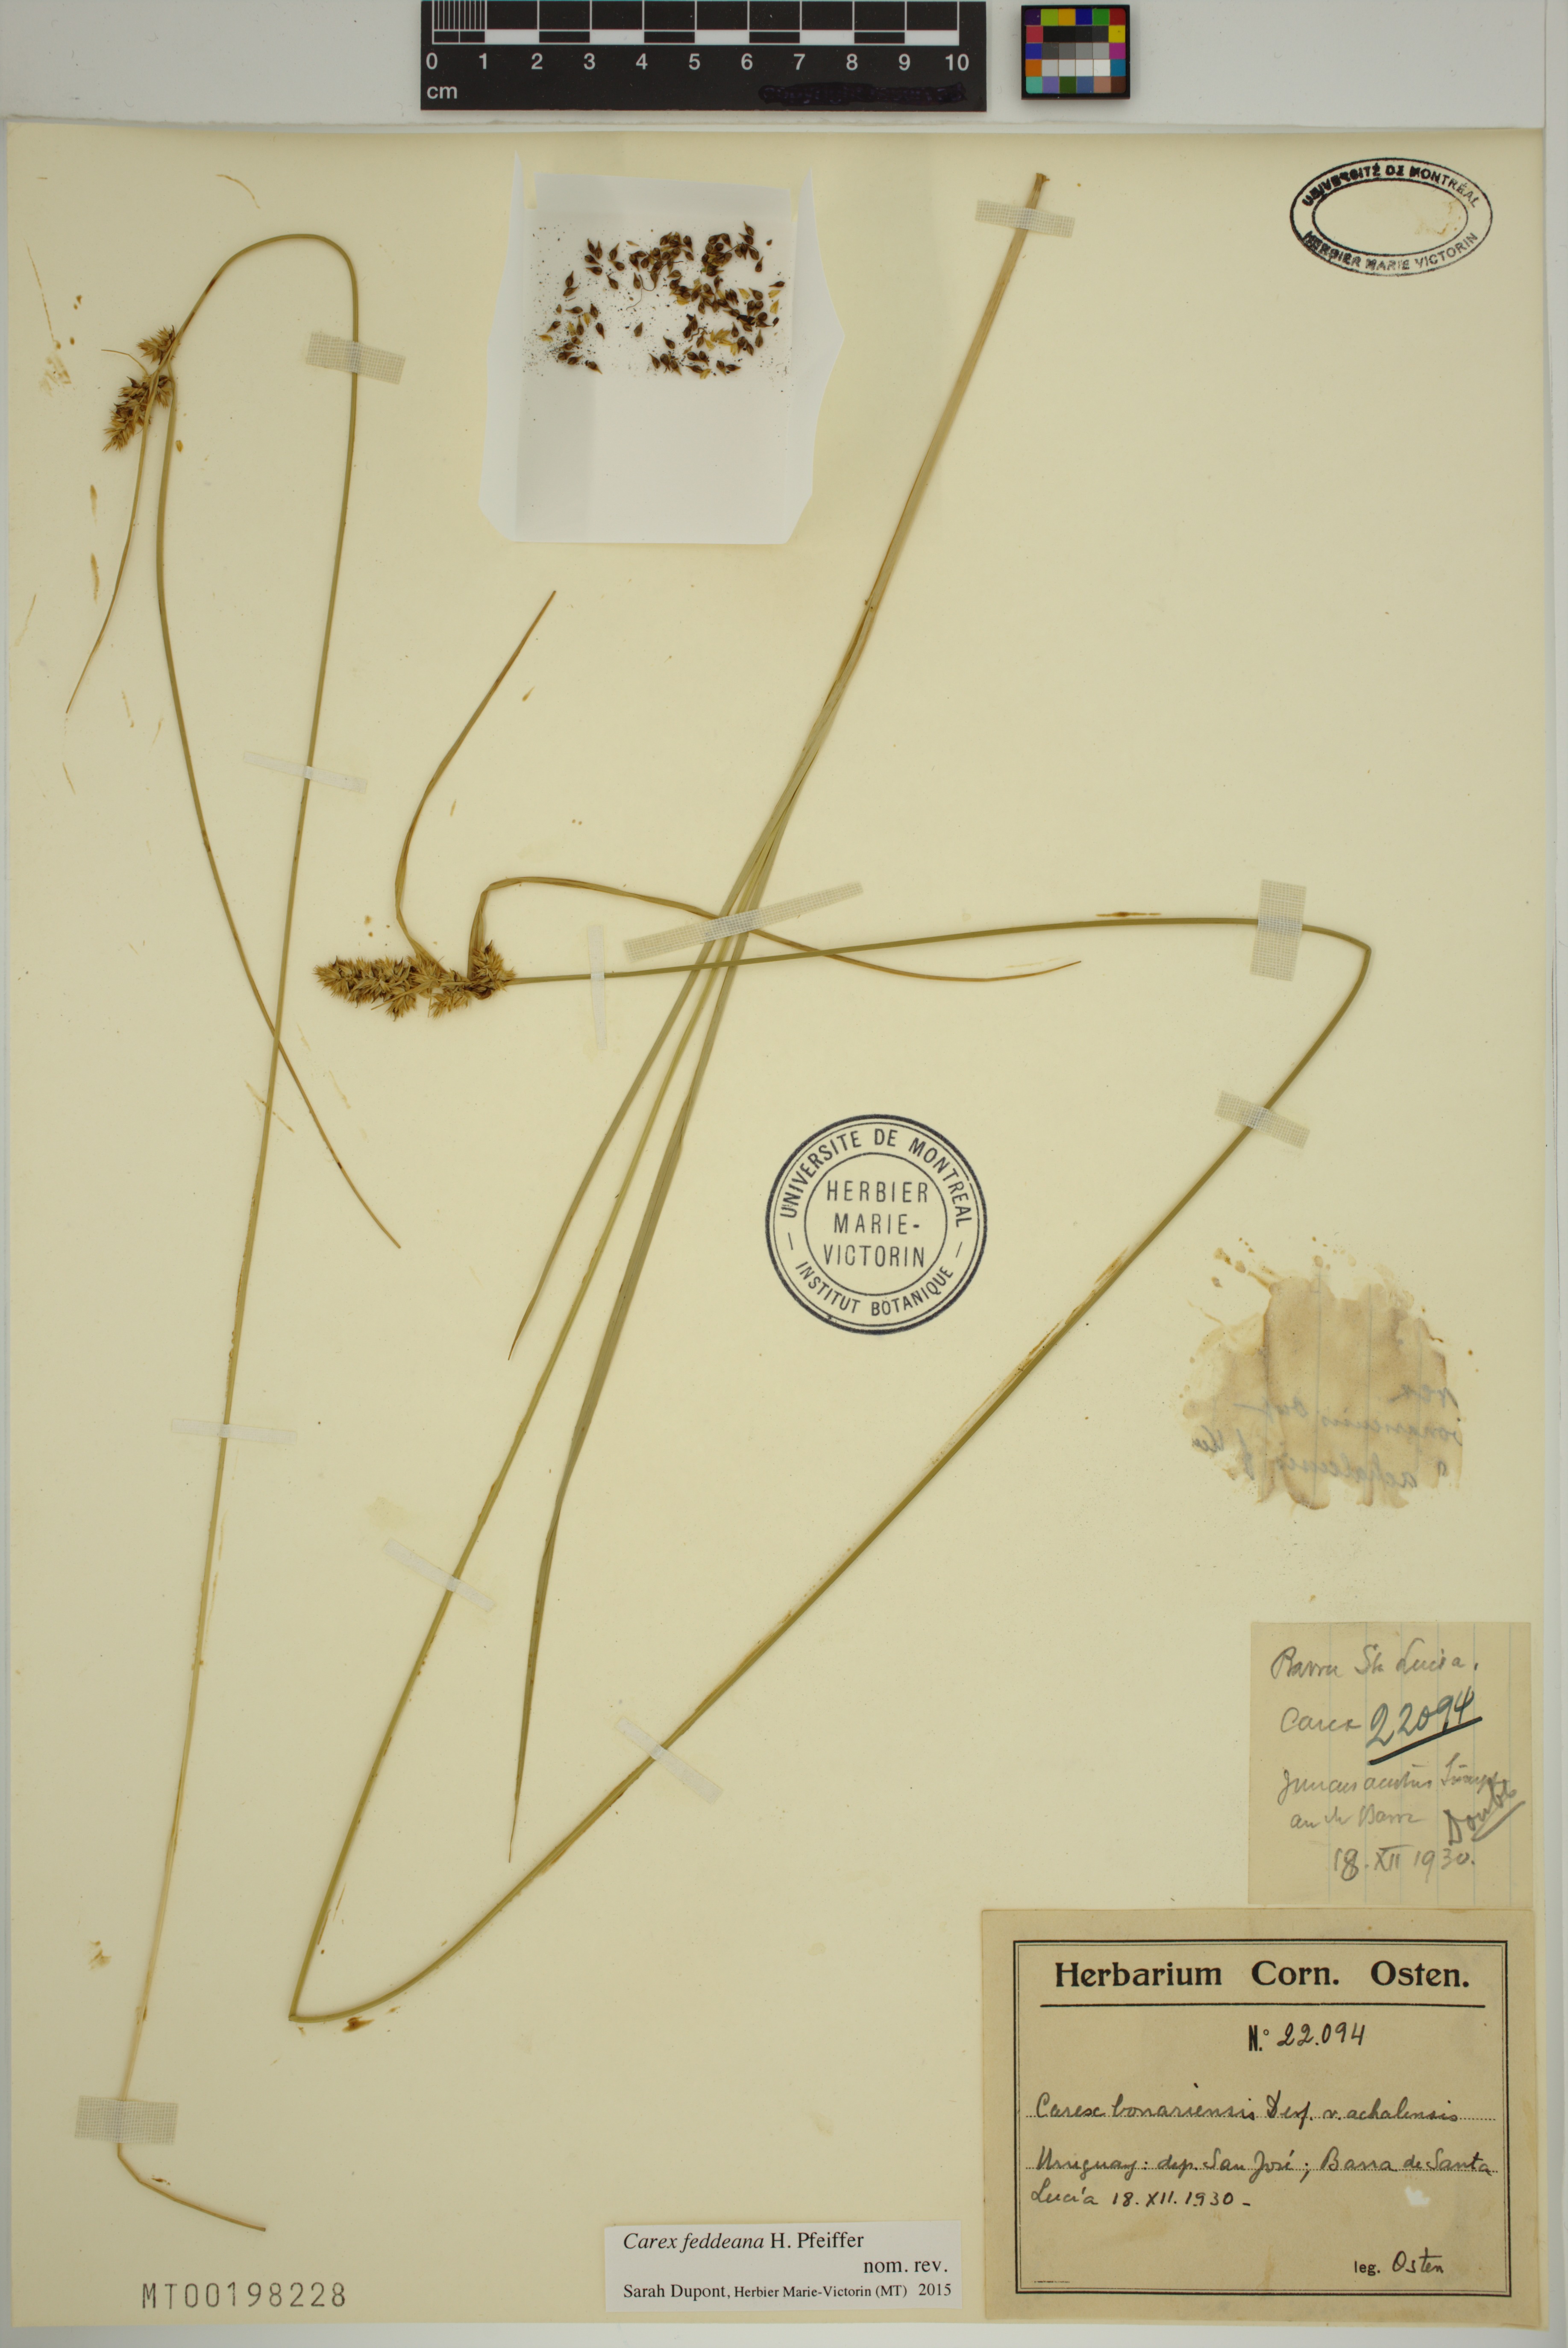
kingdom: Plantae
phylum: Tracheophyta
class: Liliopsida
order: Poales
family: Cyperaceae
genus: Carex
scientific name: Carex feddeana
